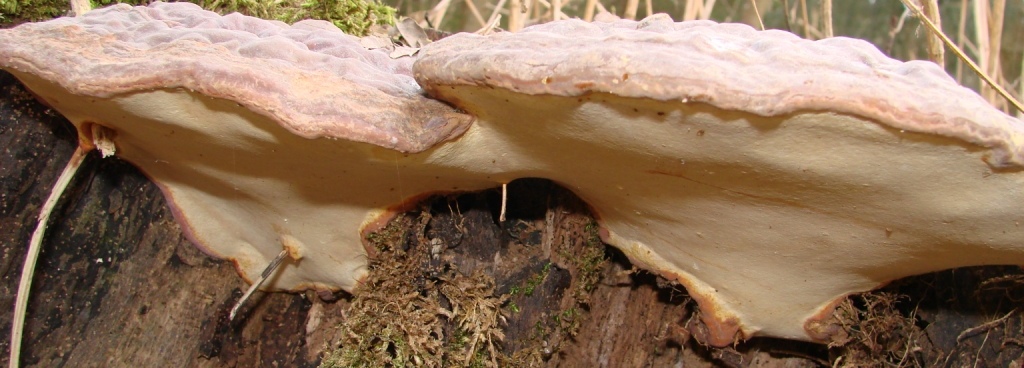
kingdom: Fungi
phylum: Basidiomycota
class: Agaricomycetes
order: Polyporales
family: Polyporaceae
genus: Ganoderma
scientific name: Ganoderma pfeifferi
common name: kobberrød lakporesvamp
